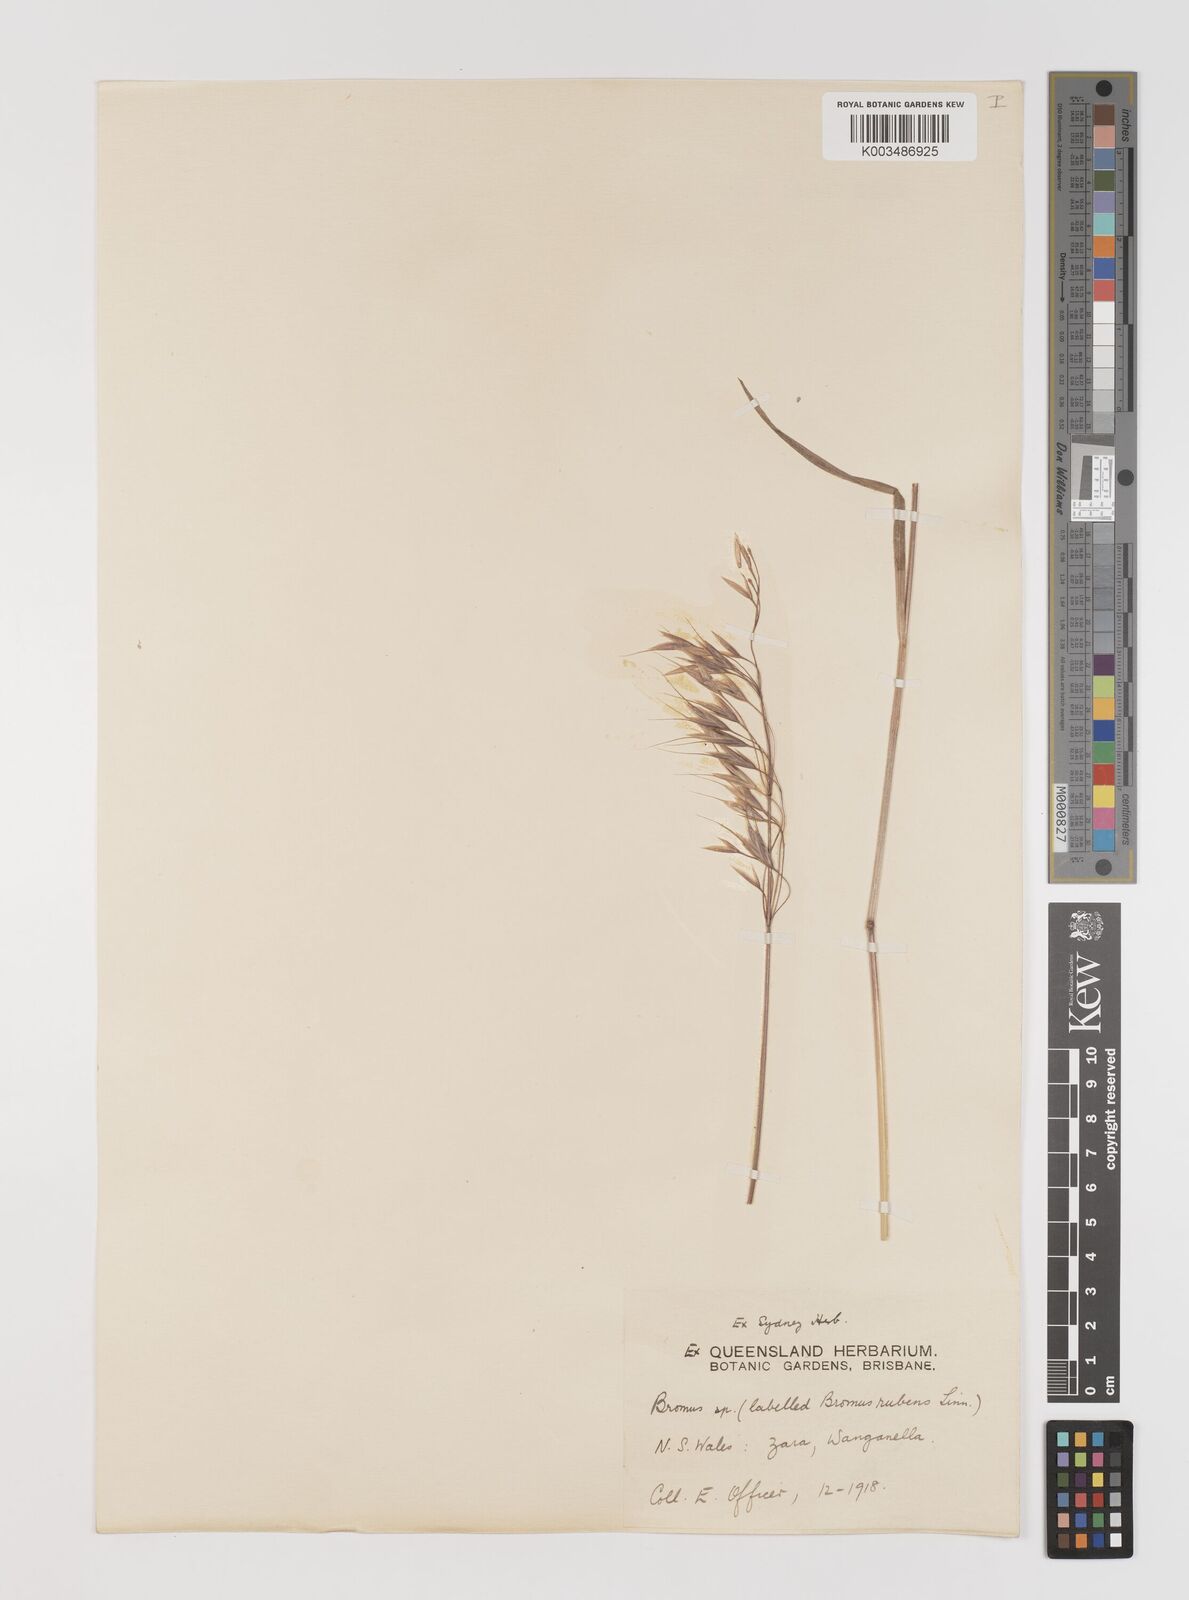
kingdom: Plantae
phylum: Tracheophyta
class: Liliopsida
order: Poales
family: Poaceae
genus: Bromus
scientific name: Bromus arenarius
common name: Australian brome
